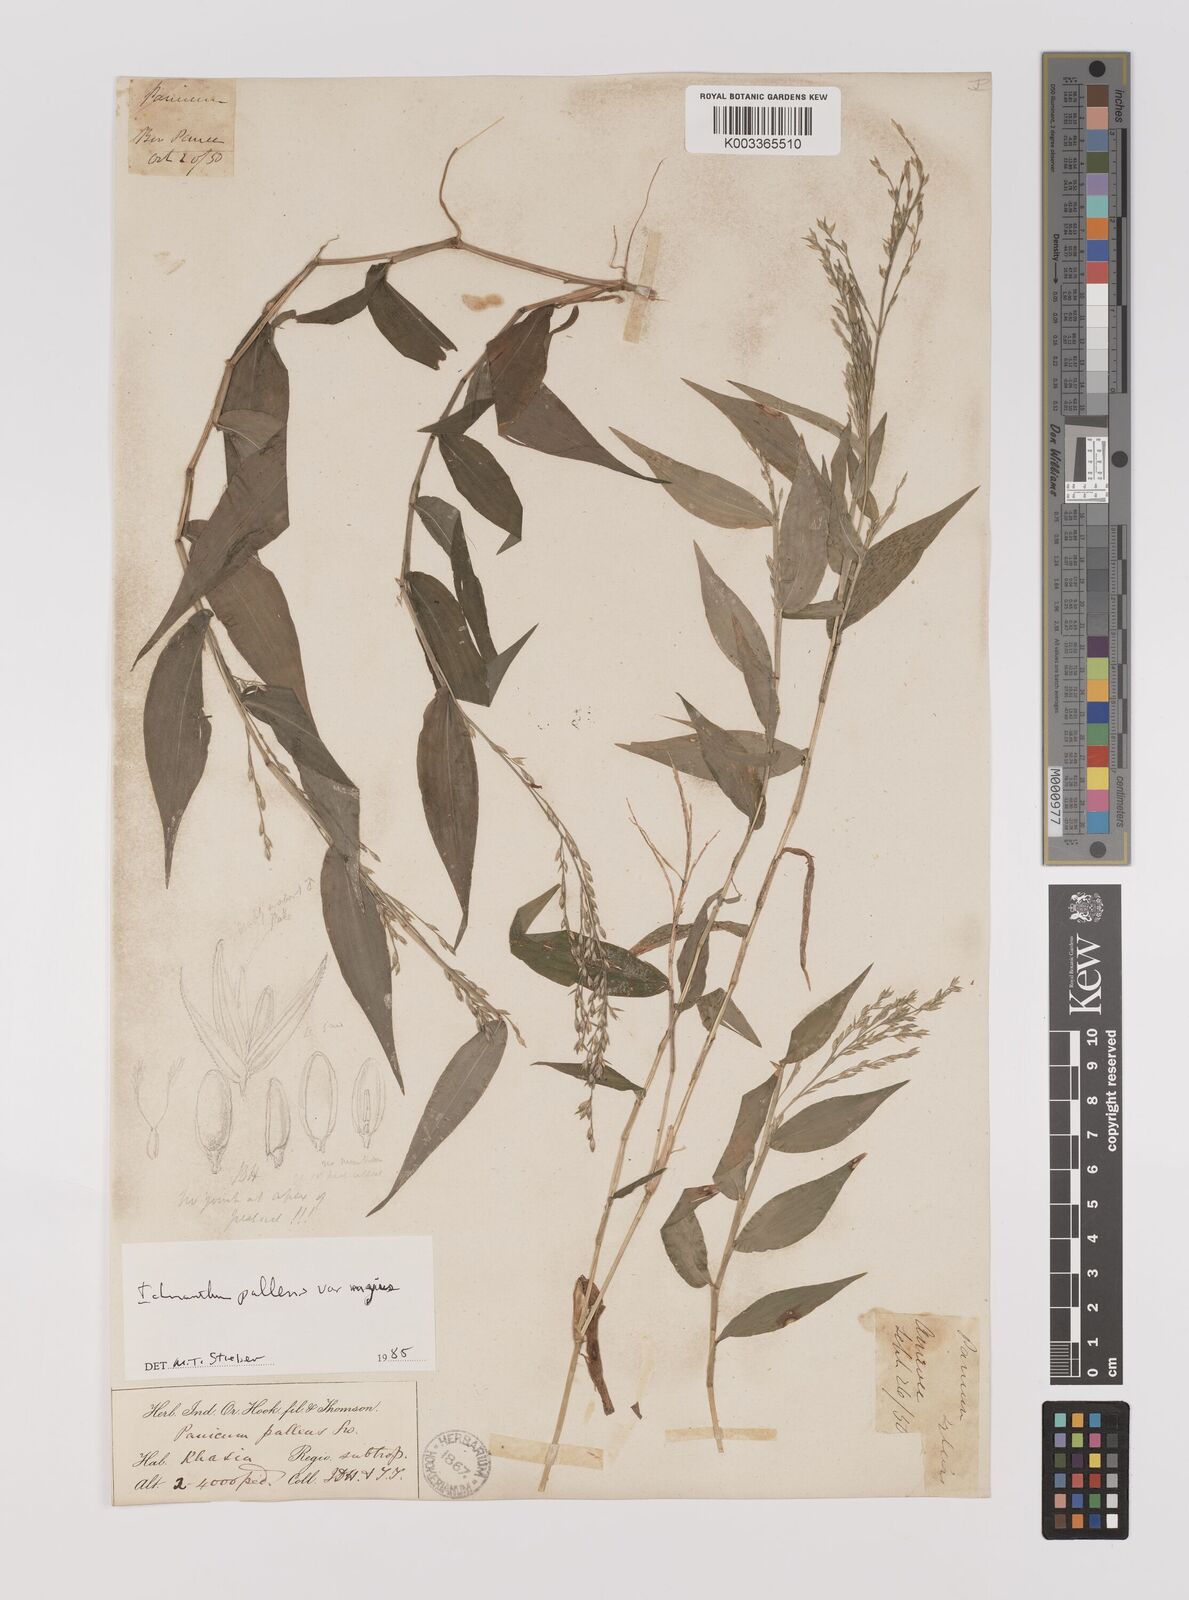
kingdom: Plantae
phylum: Tracheophyta
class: Liliopsida
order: Poales
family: Poaceae
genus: Ichnanthus
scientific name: Ichnanthus pallens
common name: Water grass
